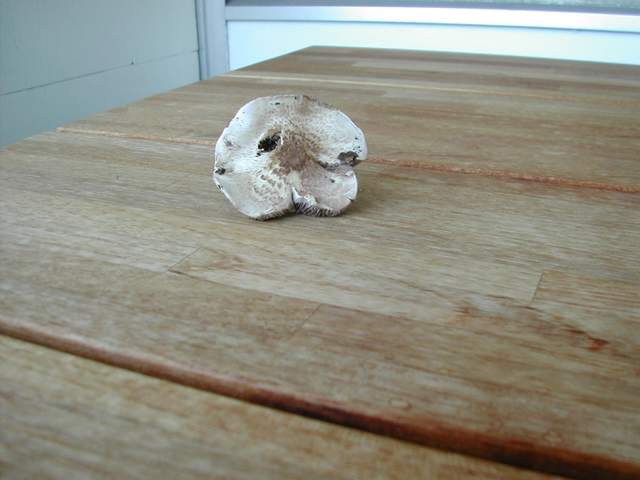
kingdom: Fungi
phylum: Basidiomycota
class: Agaricomycetes
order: Agaricales
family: Agaricaceae
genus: Agaricus
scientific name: Agaricus dulcidulus
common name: blegrød champignon
